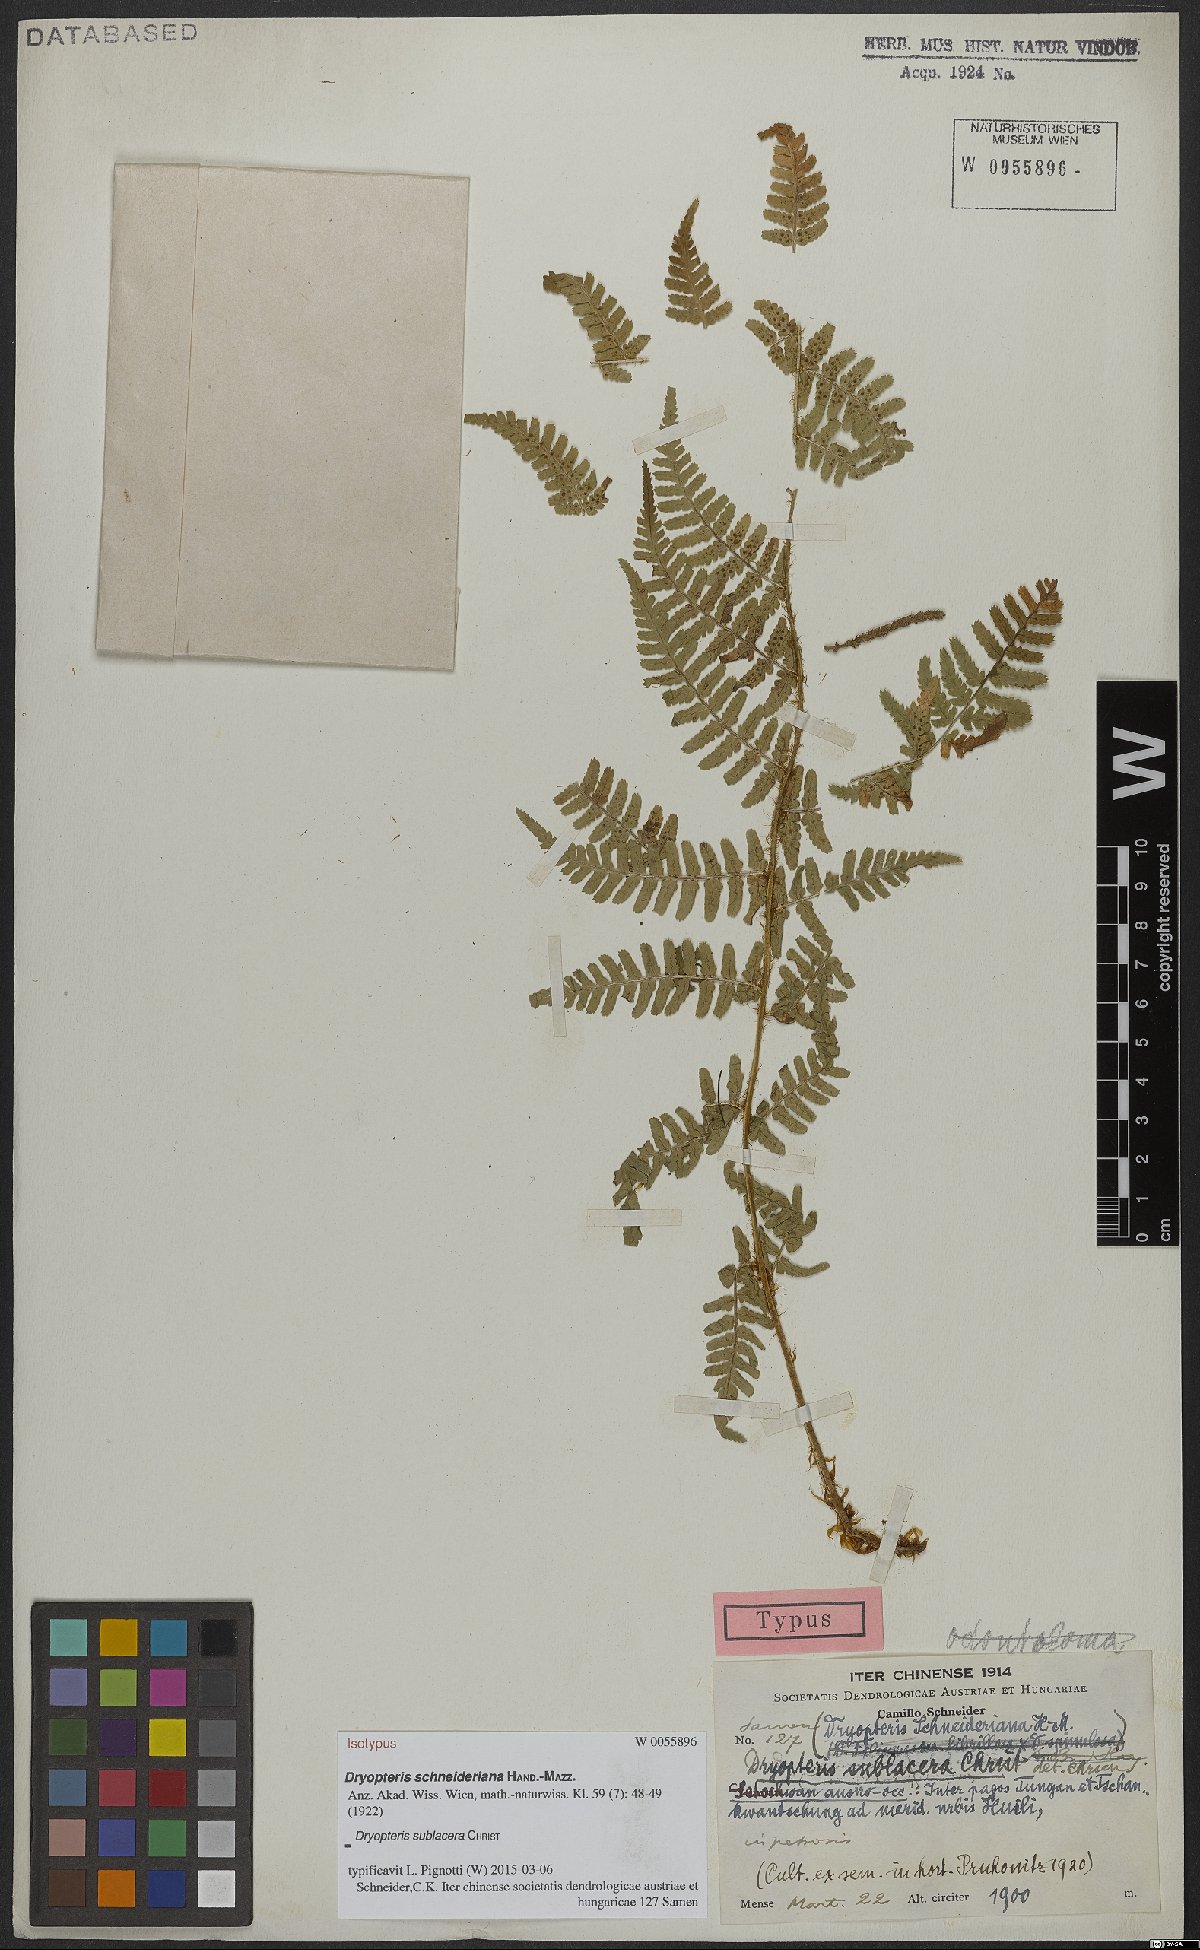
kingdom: Plantae
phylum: Tracheophyta
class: Polypodiopsida
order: Polypodiales
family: Dryopteridaceae
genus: Dryopteris
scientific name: Dryopteris sublacera
